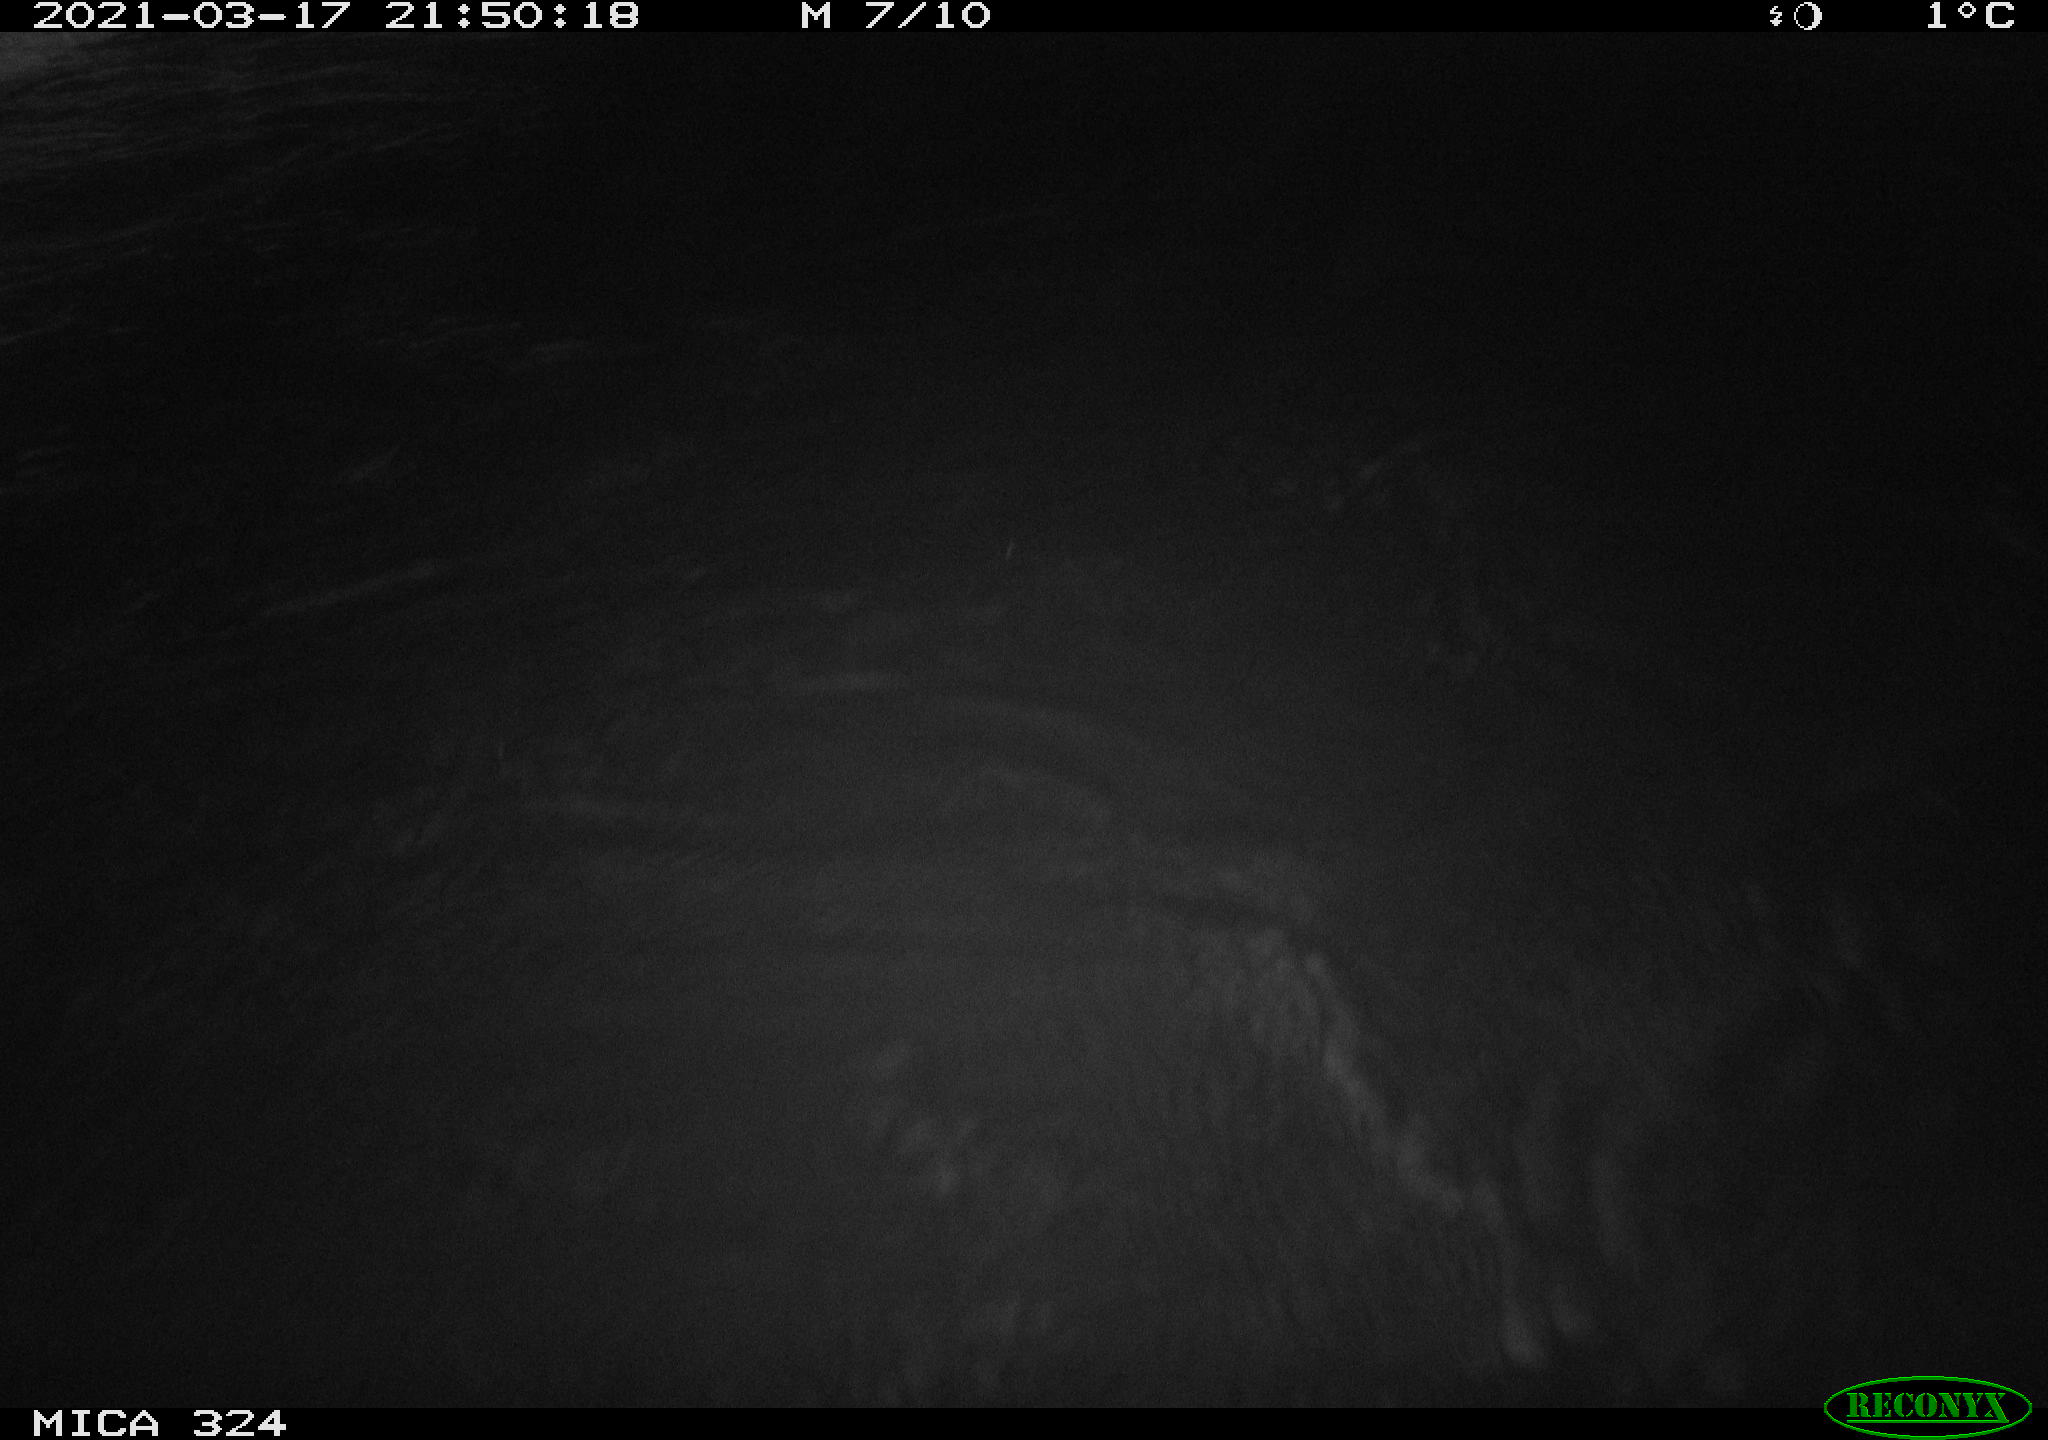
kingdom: Animalia
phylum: Chordata
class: Aves
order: Anseriformes
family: Anatidae
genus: Anas
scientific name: Anas platyrhynchos
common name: Mallard
